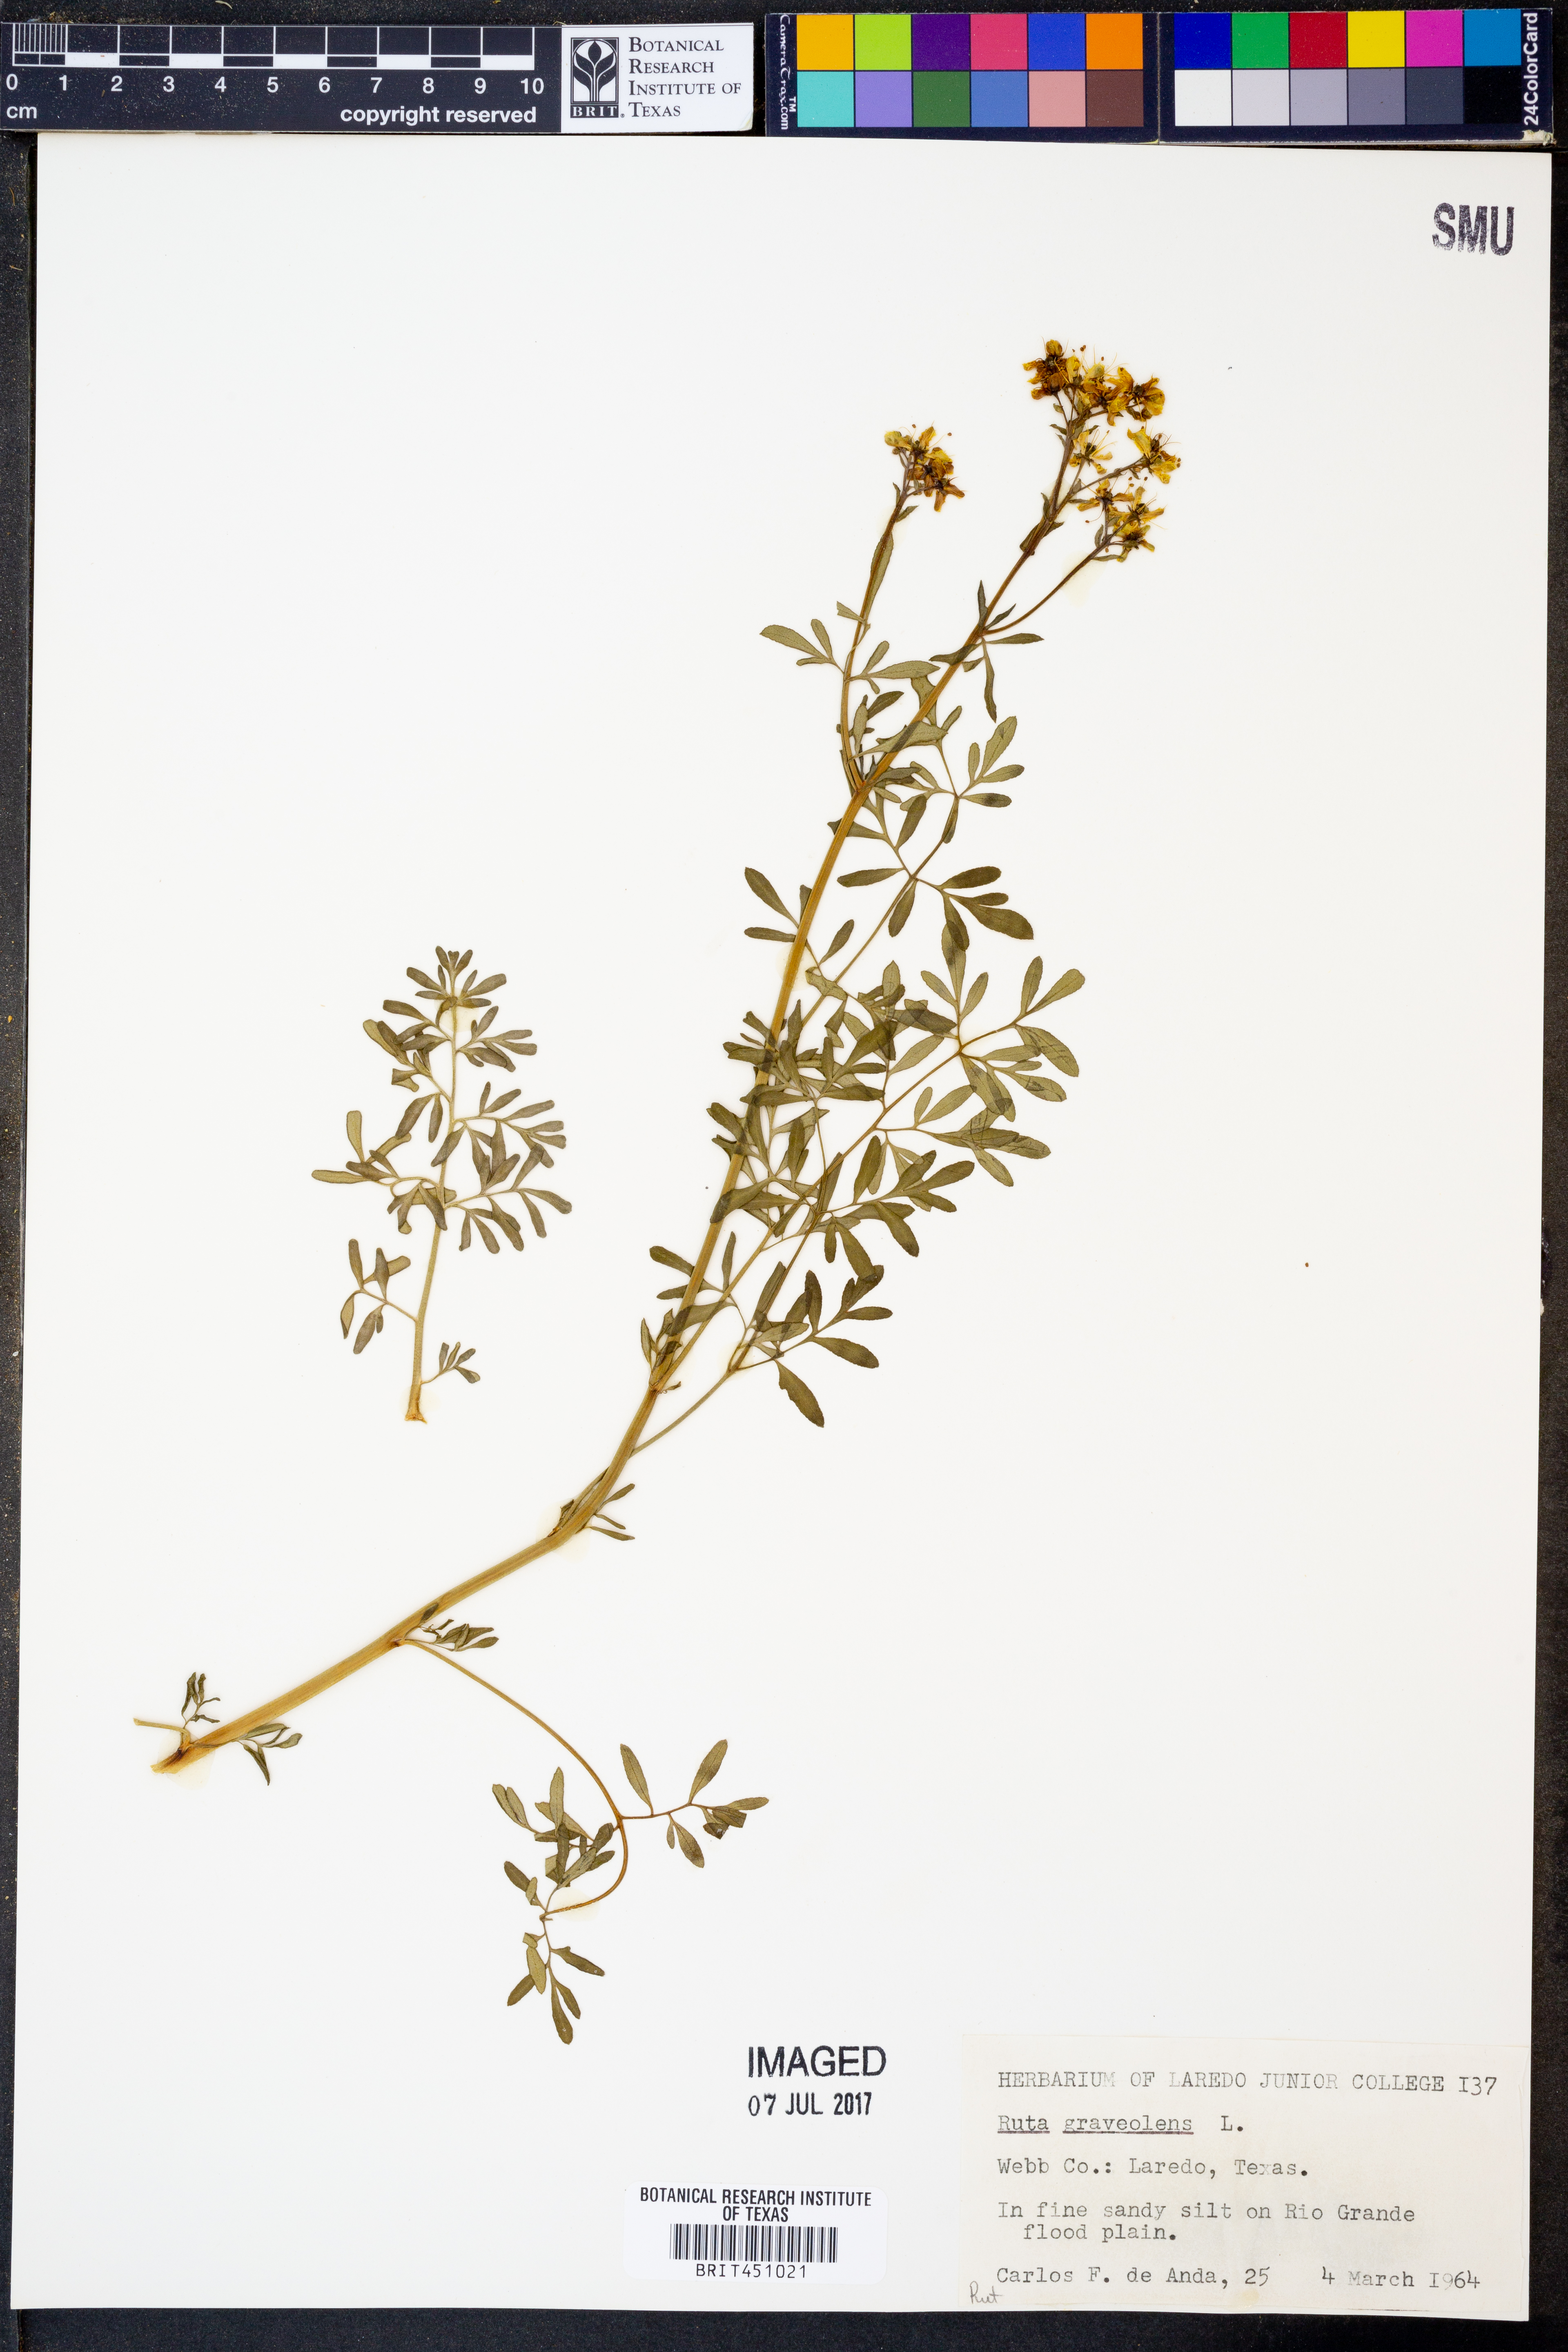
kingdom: Plantae
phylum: Tracheophyta
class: Magnoliopsida
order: Sapindales
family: Rutaceae
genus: Ruta
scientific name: Ruta graveolens
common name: Common rue
